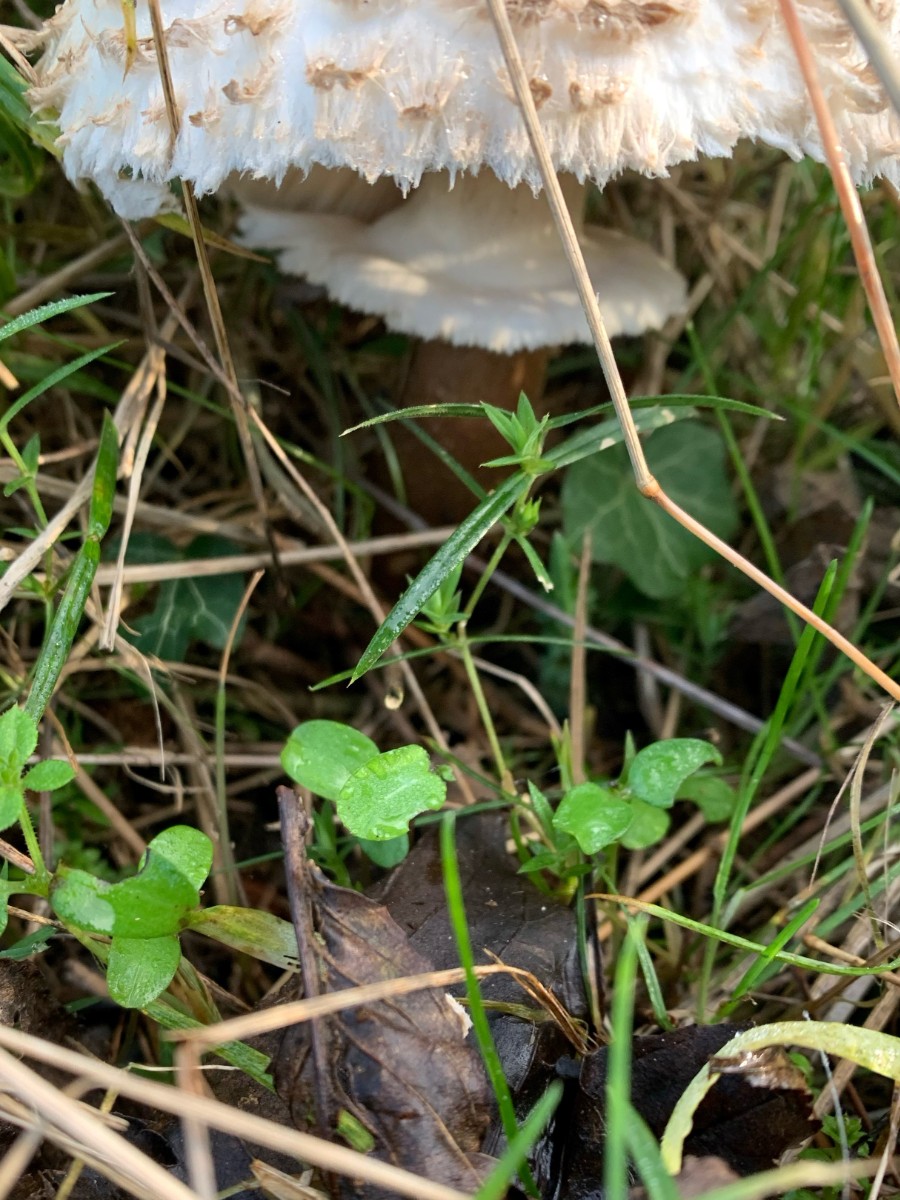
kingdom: Fungi
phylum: Basidiomycota
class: Agaricomycetes
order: Agaricales
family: Agaricaceae
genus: Chlorophyllum
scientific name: Chlorophyllum
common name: rabarberhat
